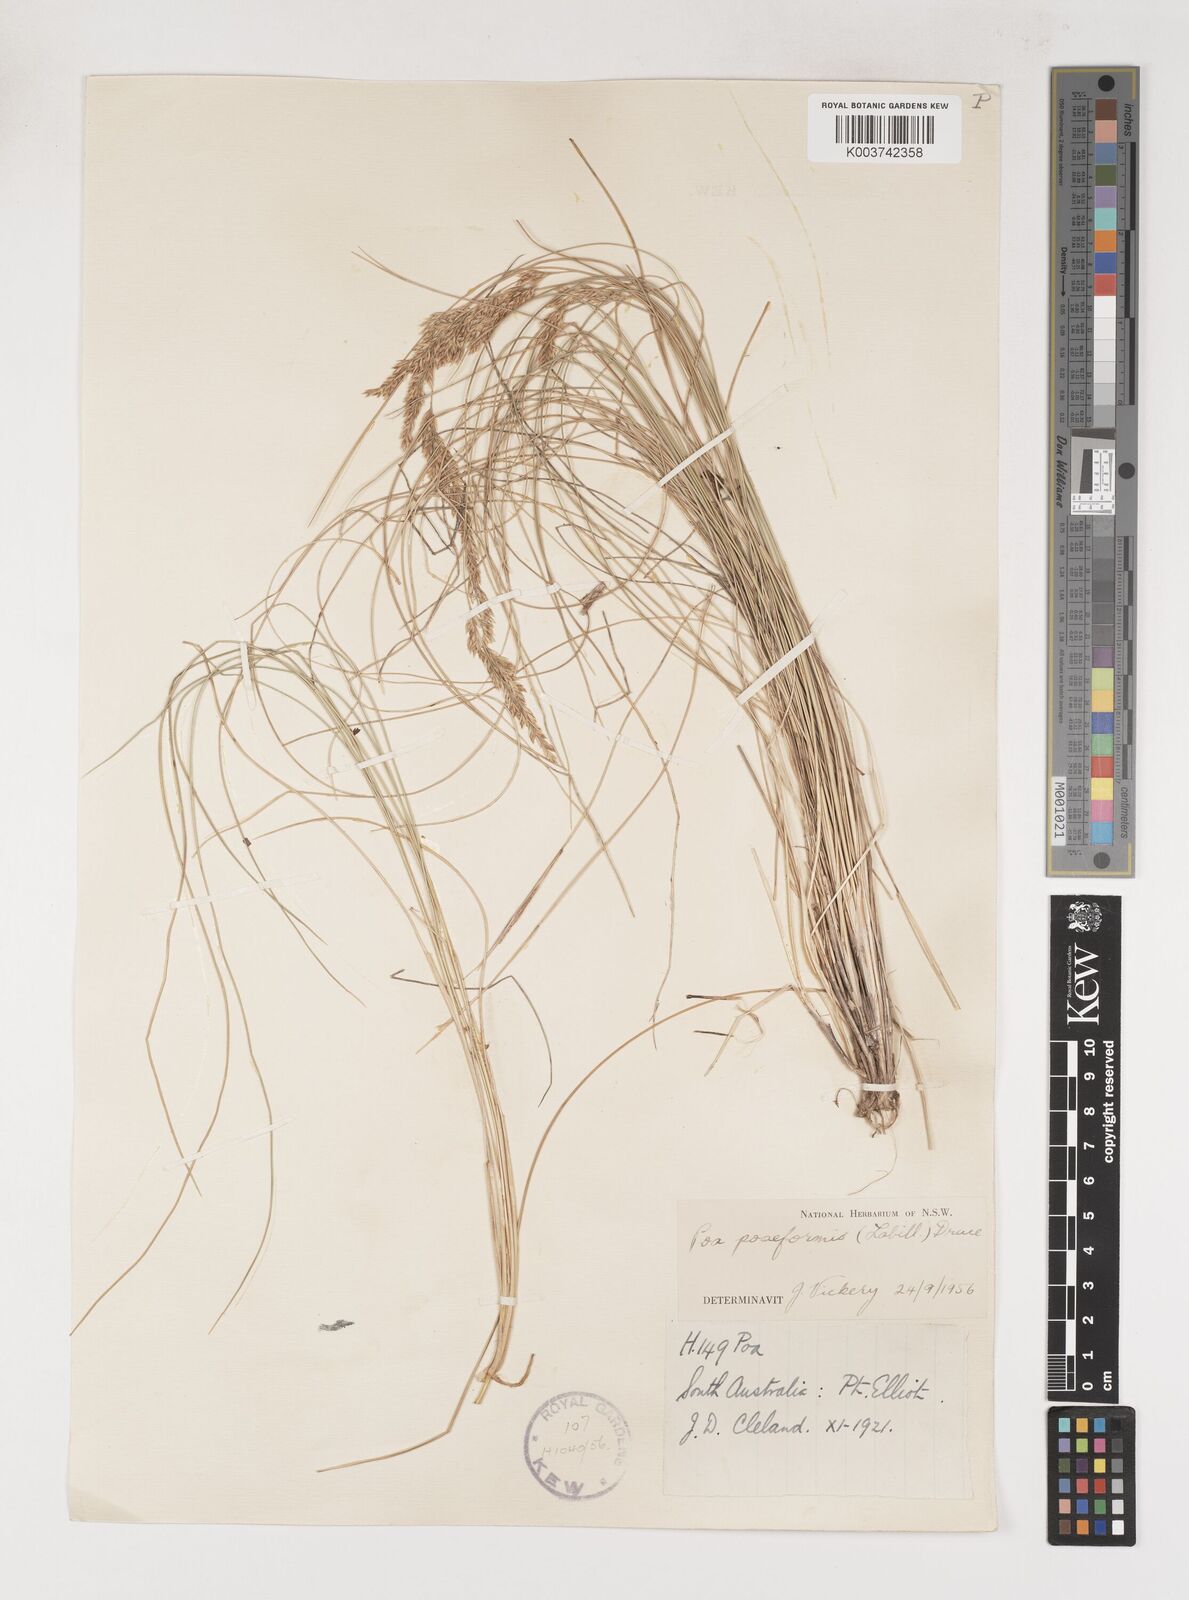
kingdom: Plantae
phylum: Tracheophyta
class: Liliopsida
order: Poales
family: Poaceae
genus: Poa
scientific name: Poa poiformis
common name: Tussock poa
